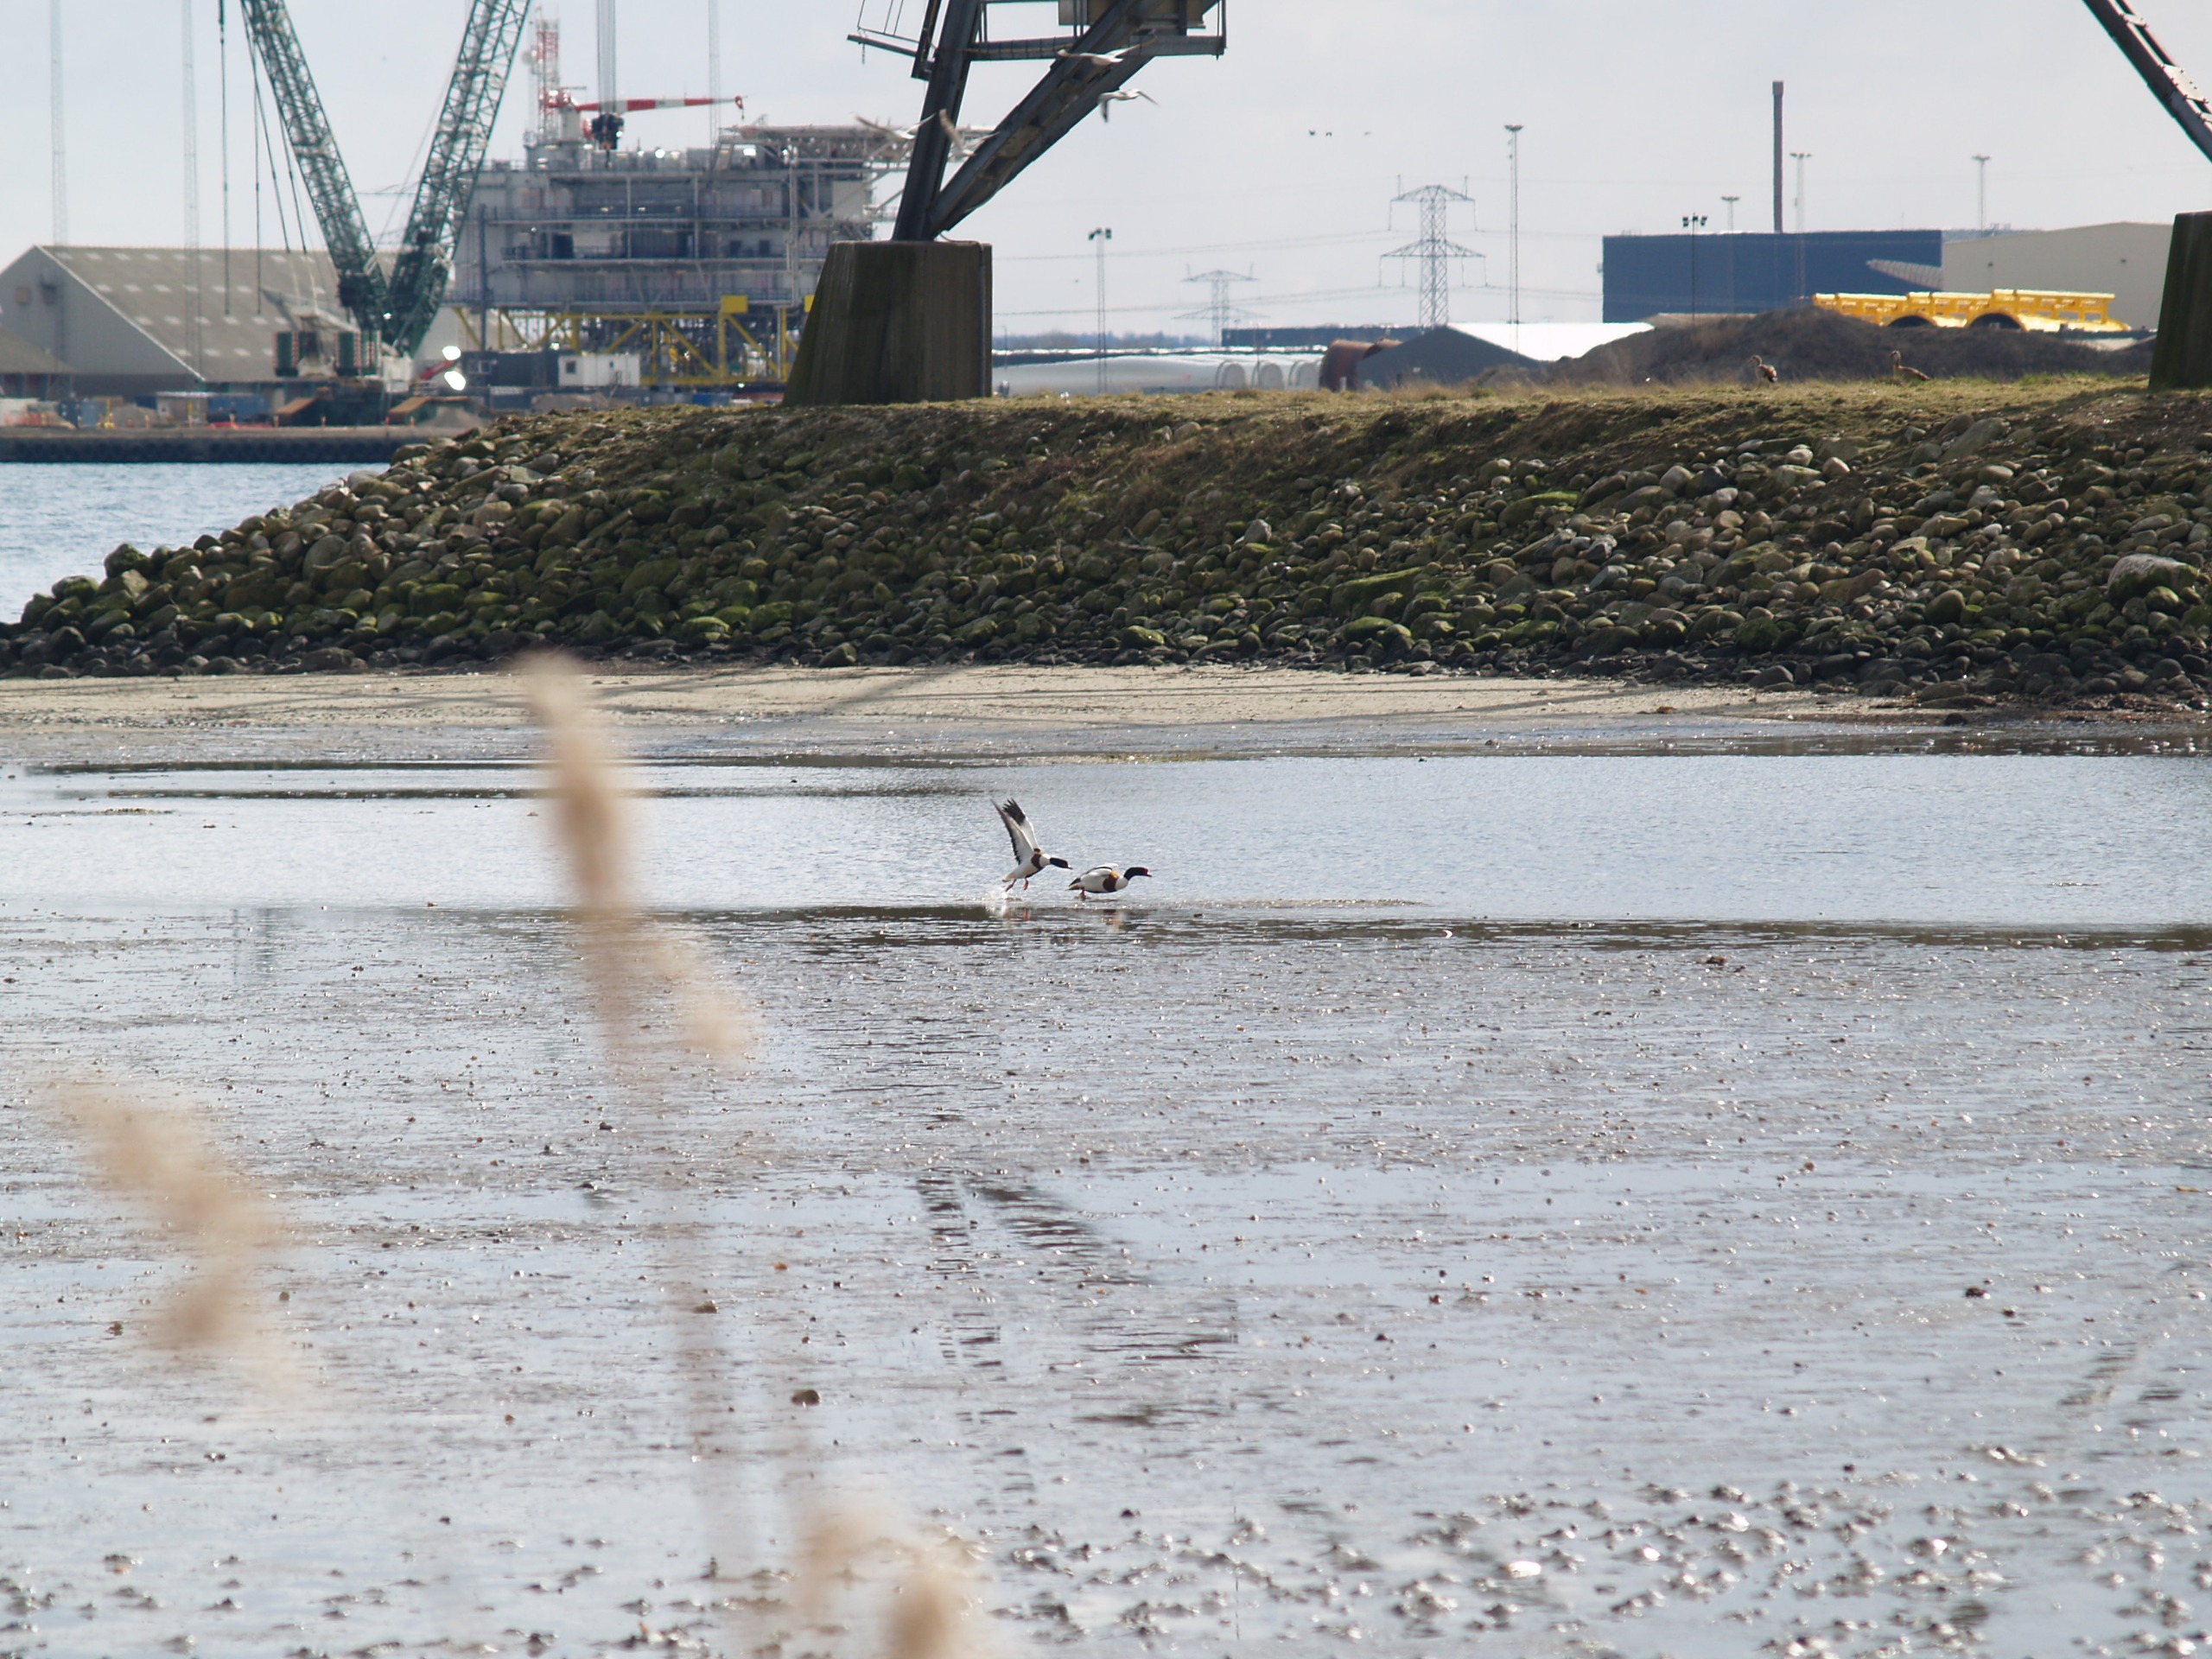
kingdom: Animalia
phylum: Chordata
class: Aves
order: Anseriformes
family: Anatidae
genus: Tadorna
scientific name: Tadorna tadorna
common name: Gravand
